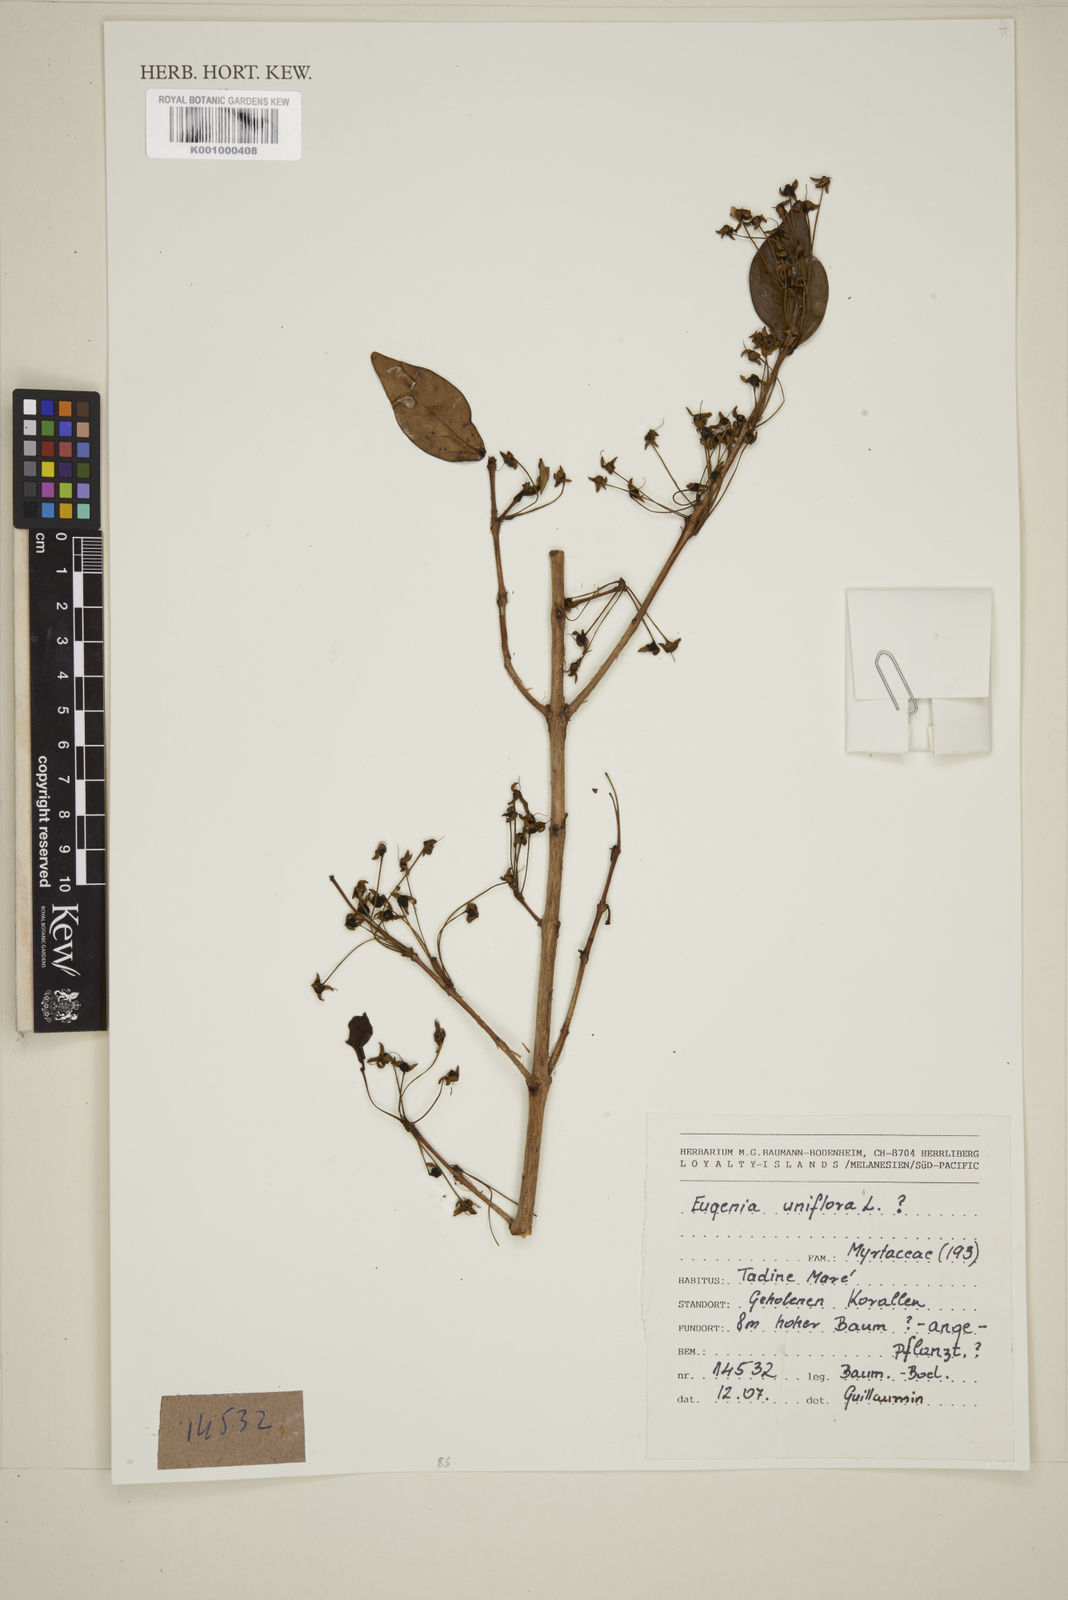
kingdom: Plantae
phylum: Tracheophyta
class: Magnoliopsida
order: Myrtales
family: Myrtaceae
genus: Eugenia
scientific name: Eugenia uniflora
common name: Surinam cherry
